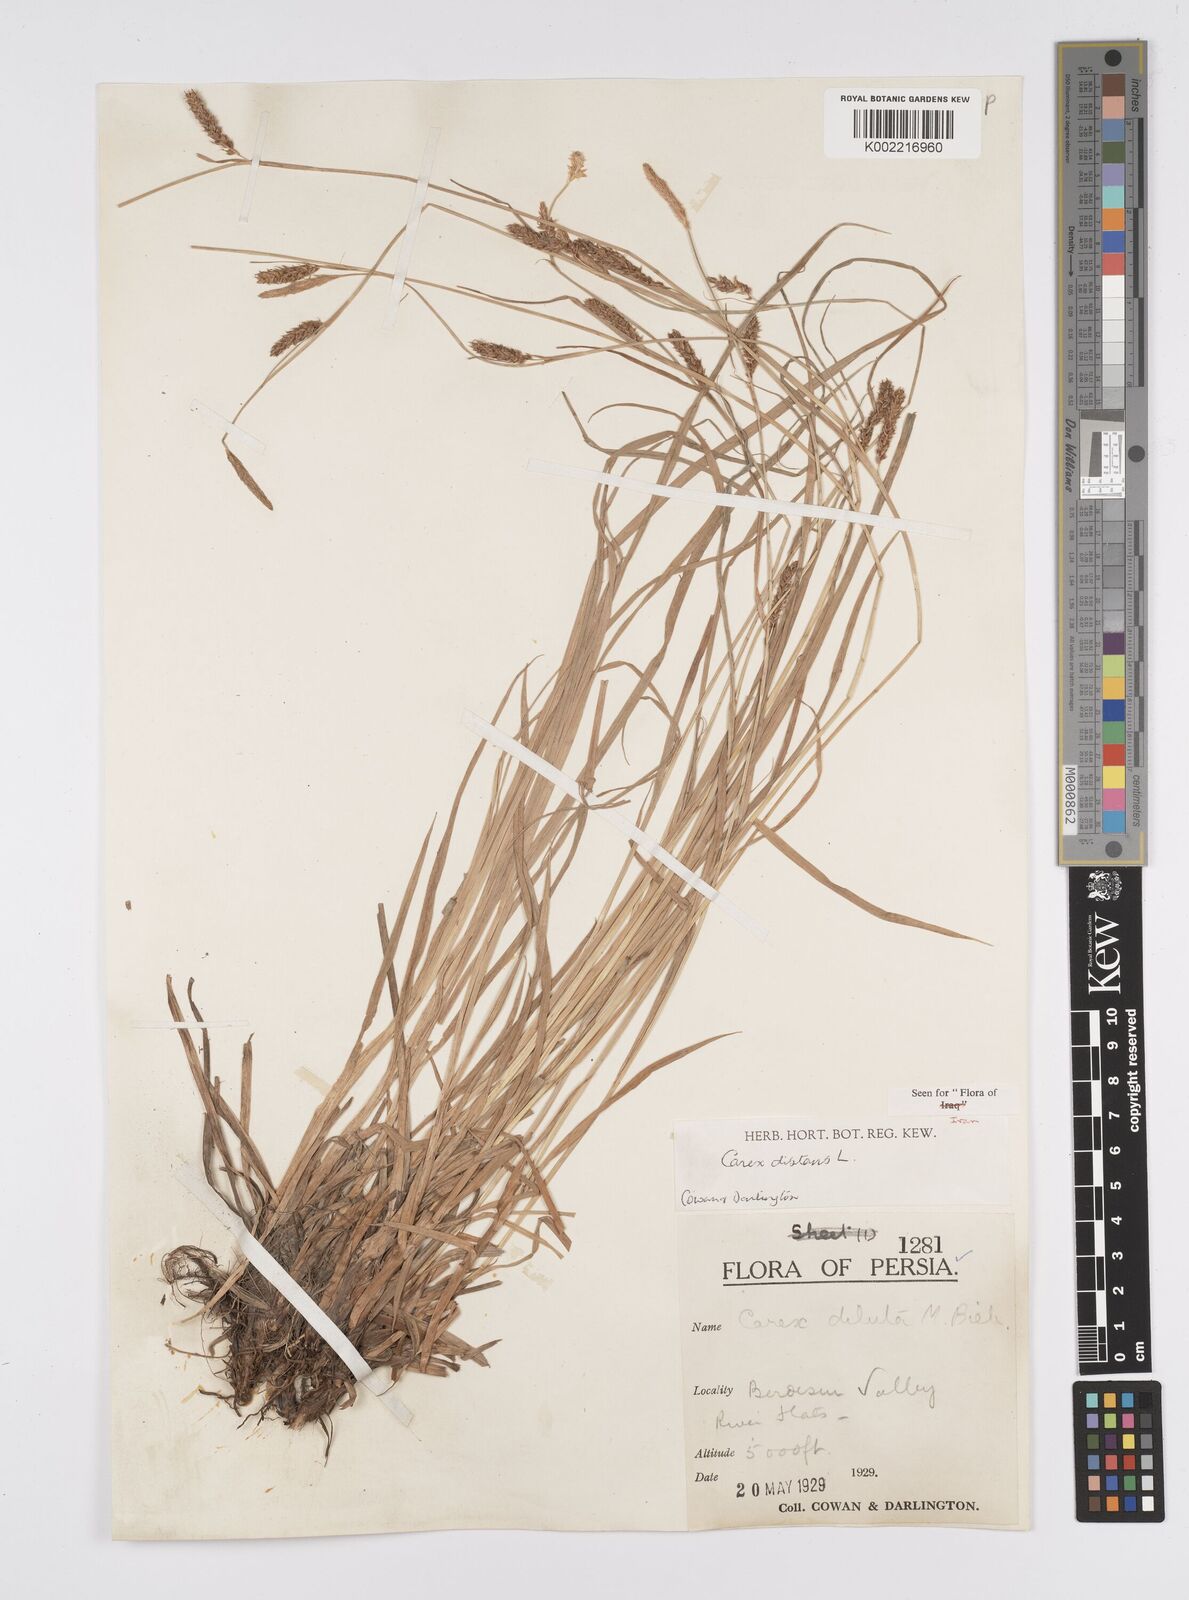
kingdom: Plantae
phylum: Tracheophyta
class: Liliopsida
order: Poales
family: Cyperaceae
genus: Carex
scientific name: Carex distans
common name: Distant sedge
